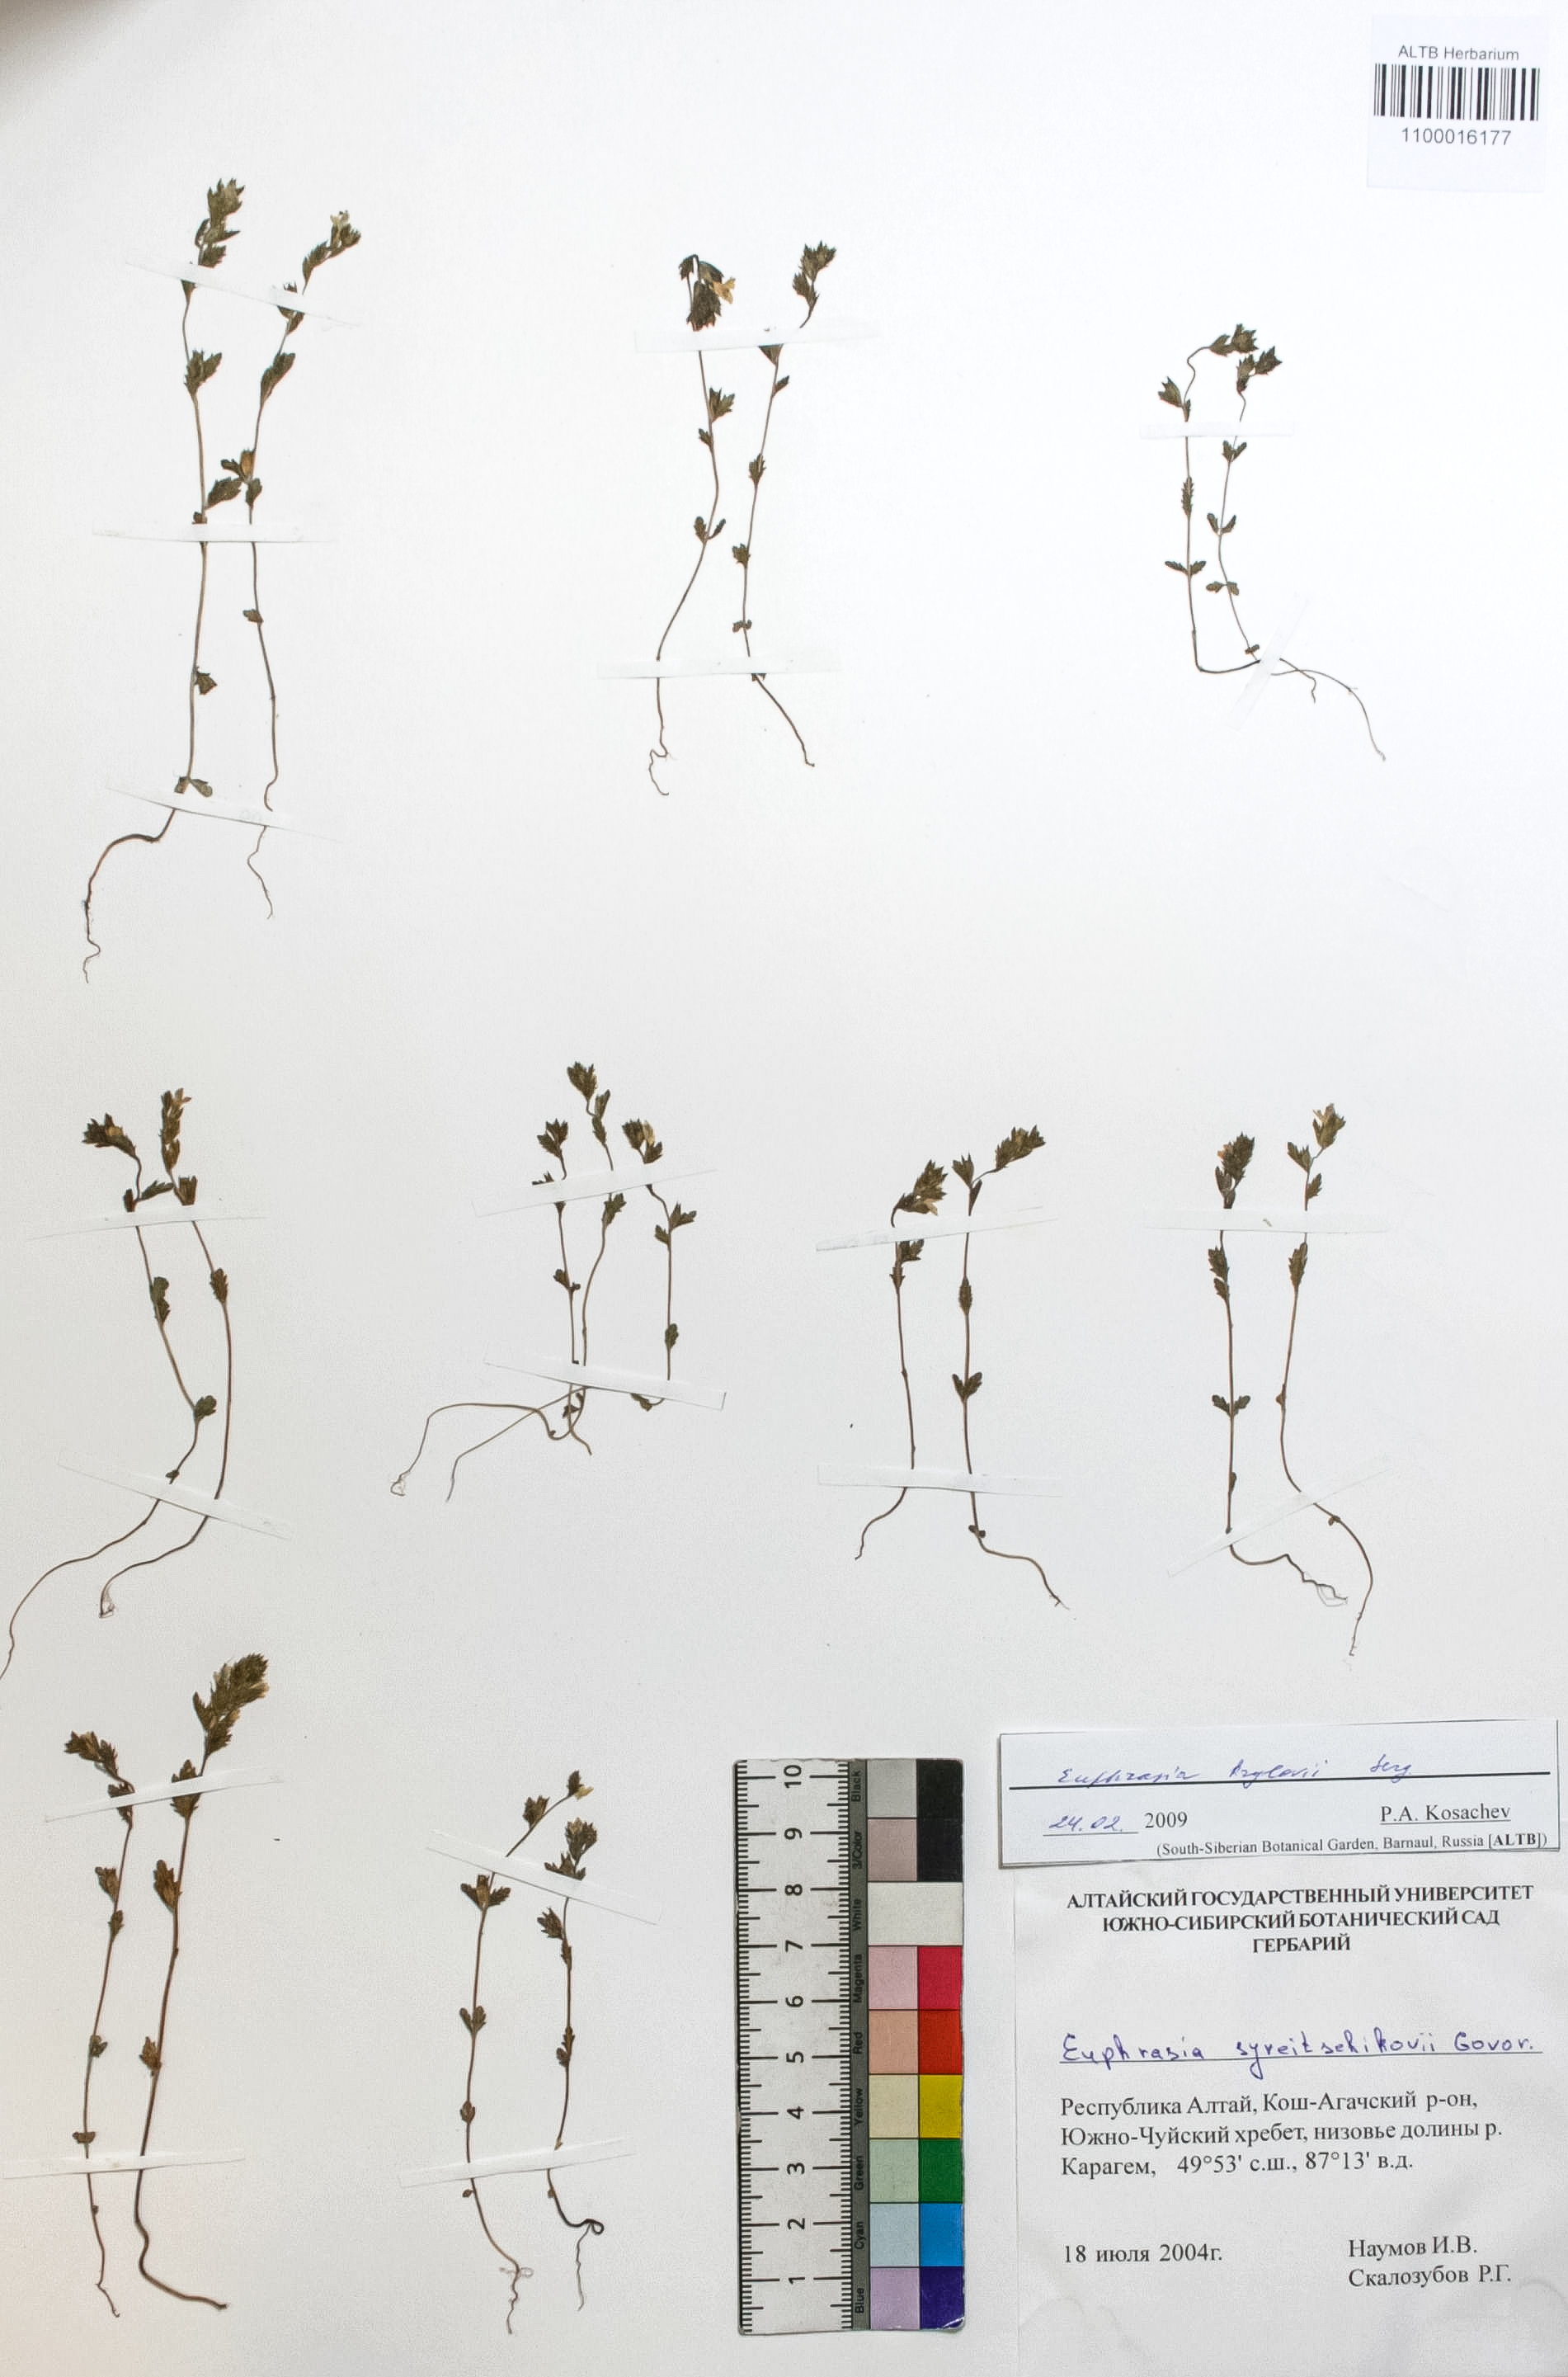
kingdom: Plantae
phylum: Tracheophyta
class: Magnoliopsida
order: Lamiales
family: Orobanchaceae
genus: Euphrasia
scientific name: Euphrasia krylovii
